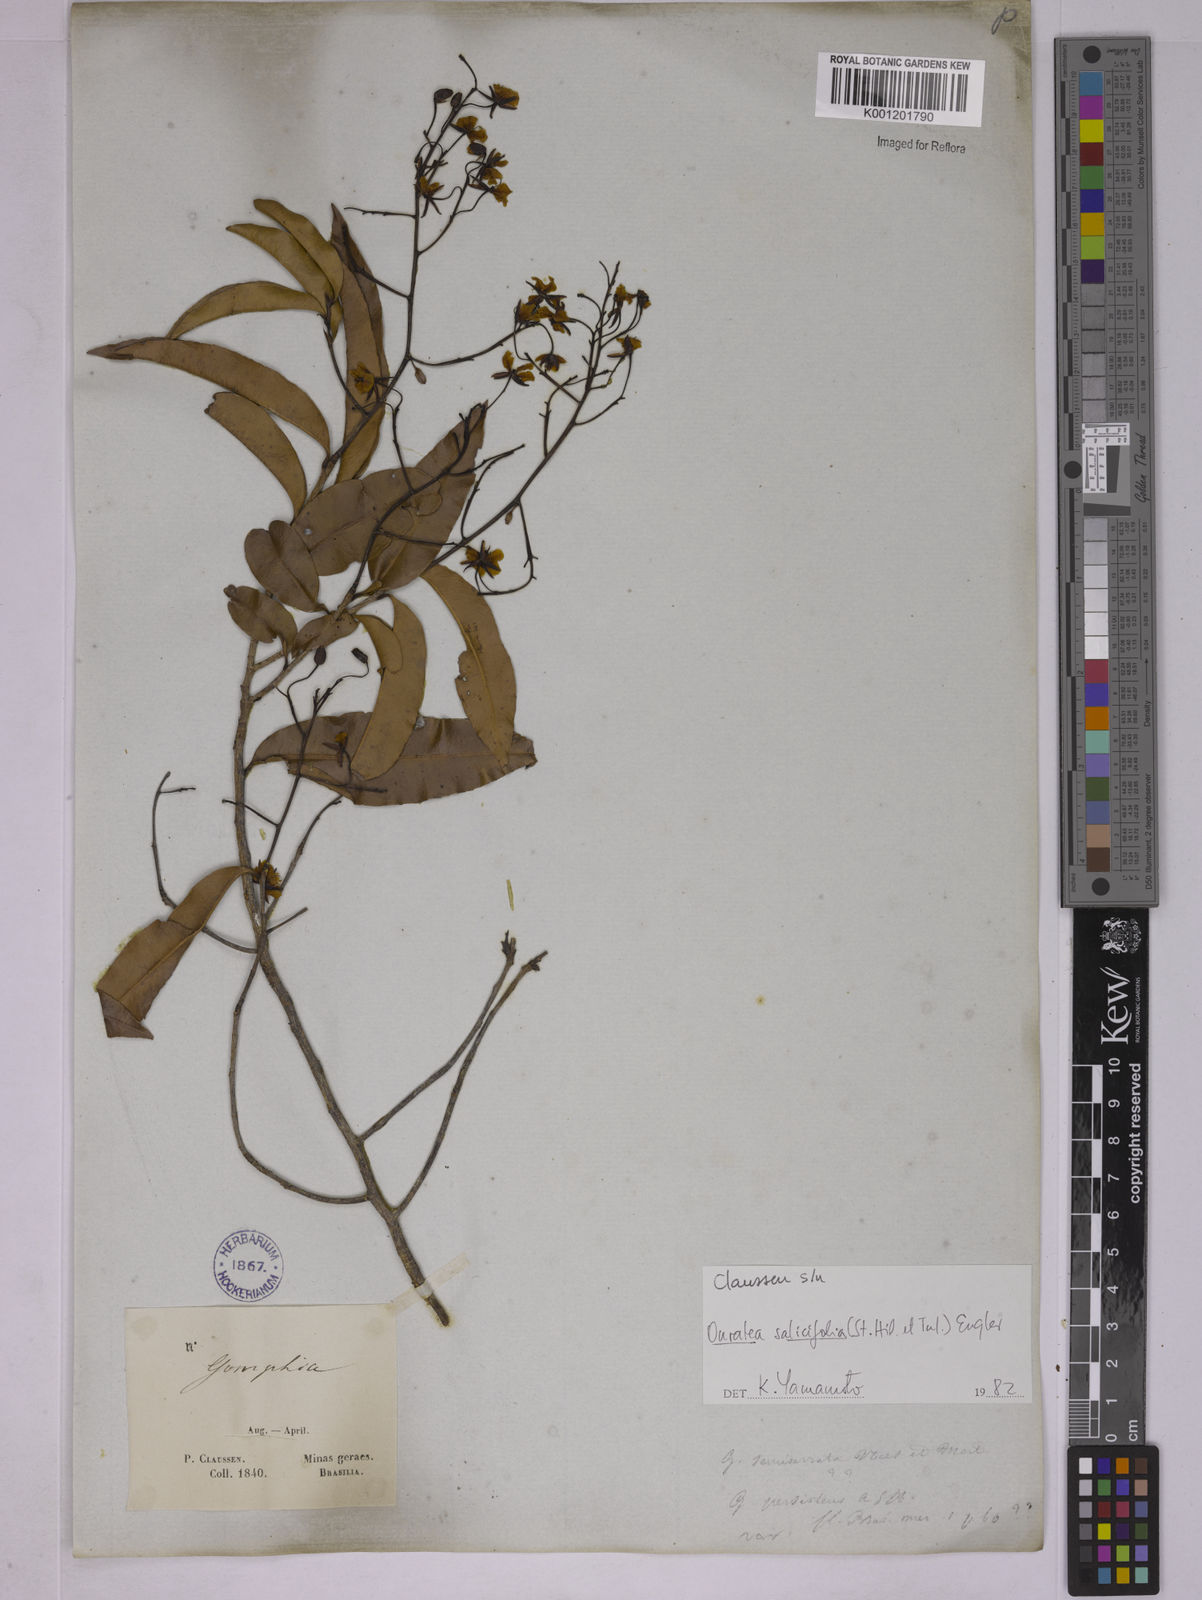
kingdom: Plantae
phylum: Tracheophyta
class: Magnoliopsida
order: Malpighiales
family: Ochnaceae
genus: Ouratea
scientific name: Ouratea salicifolia
